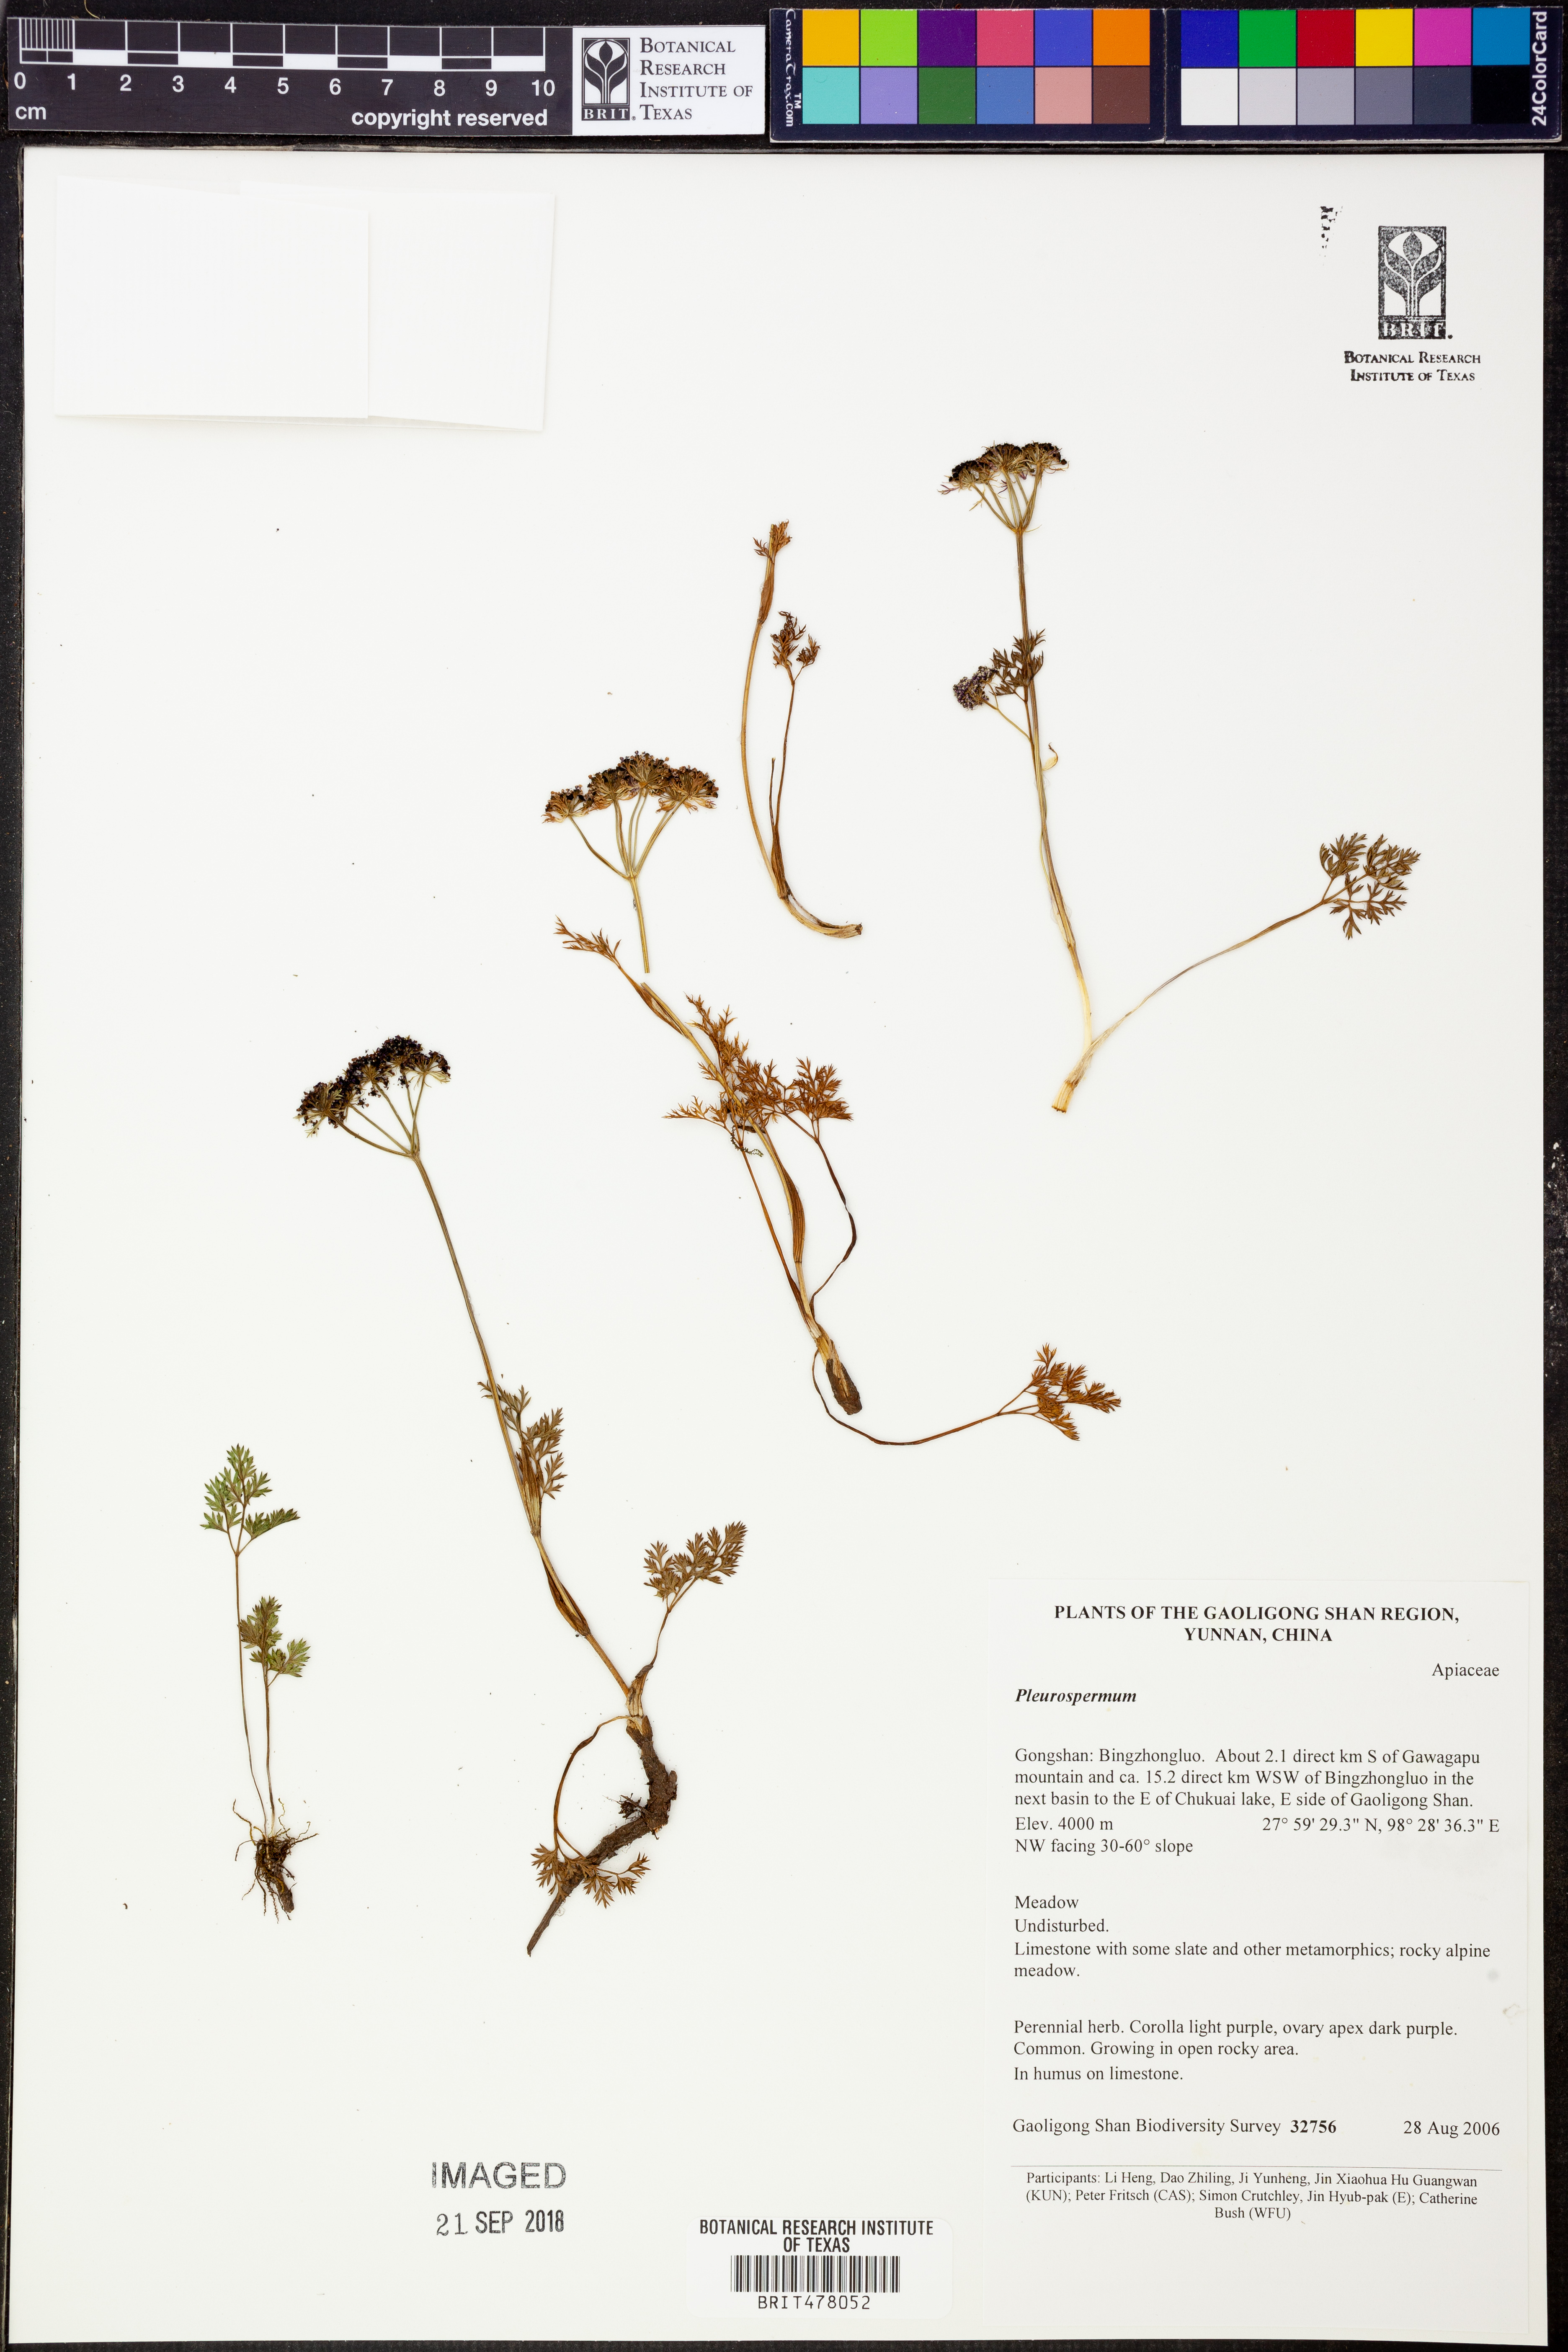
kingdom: Plantae
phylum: Tracheophyta
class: Magnoliopsida
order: Apiales
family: Apiaceae
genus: Trachydium
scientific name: Trachydium
